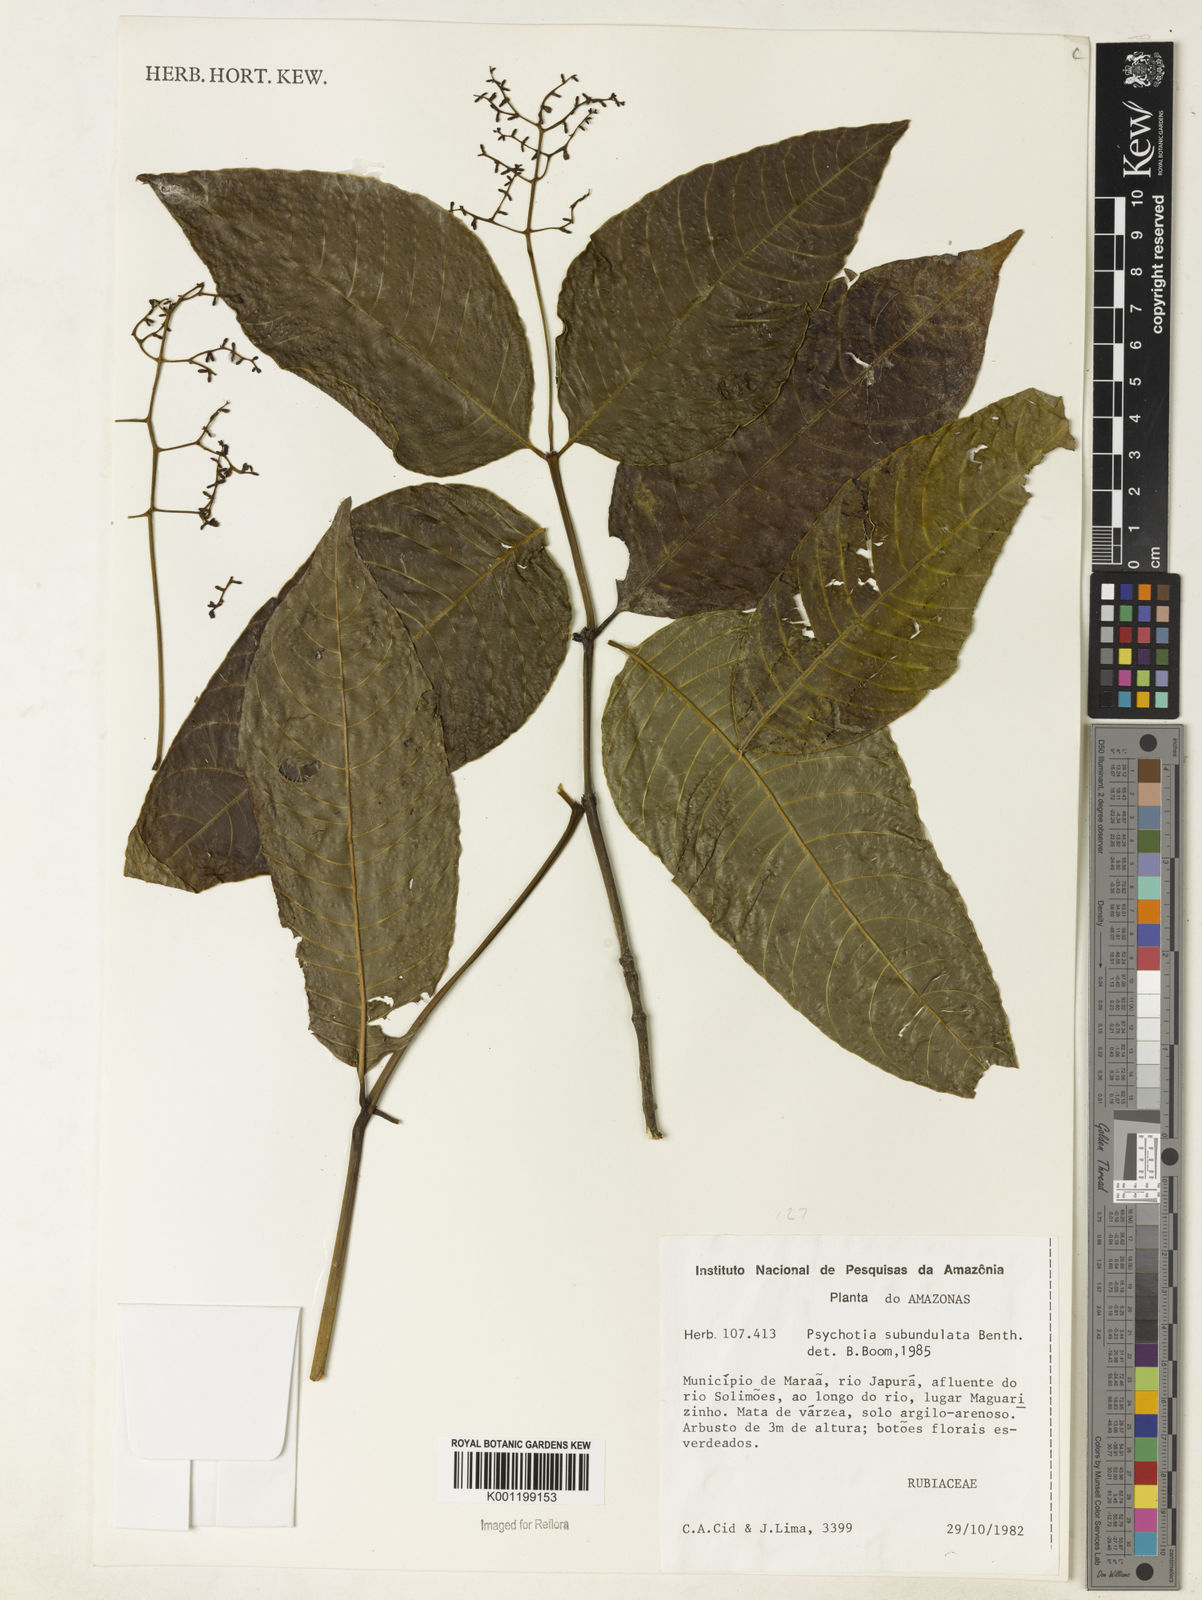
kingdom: Plantae
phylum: Tracheophyta
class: Magnoliopsida
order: Gentianales
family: Rubiaceae
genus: Palicourea
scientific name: Palicourea subundulata
